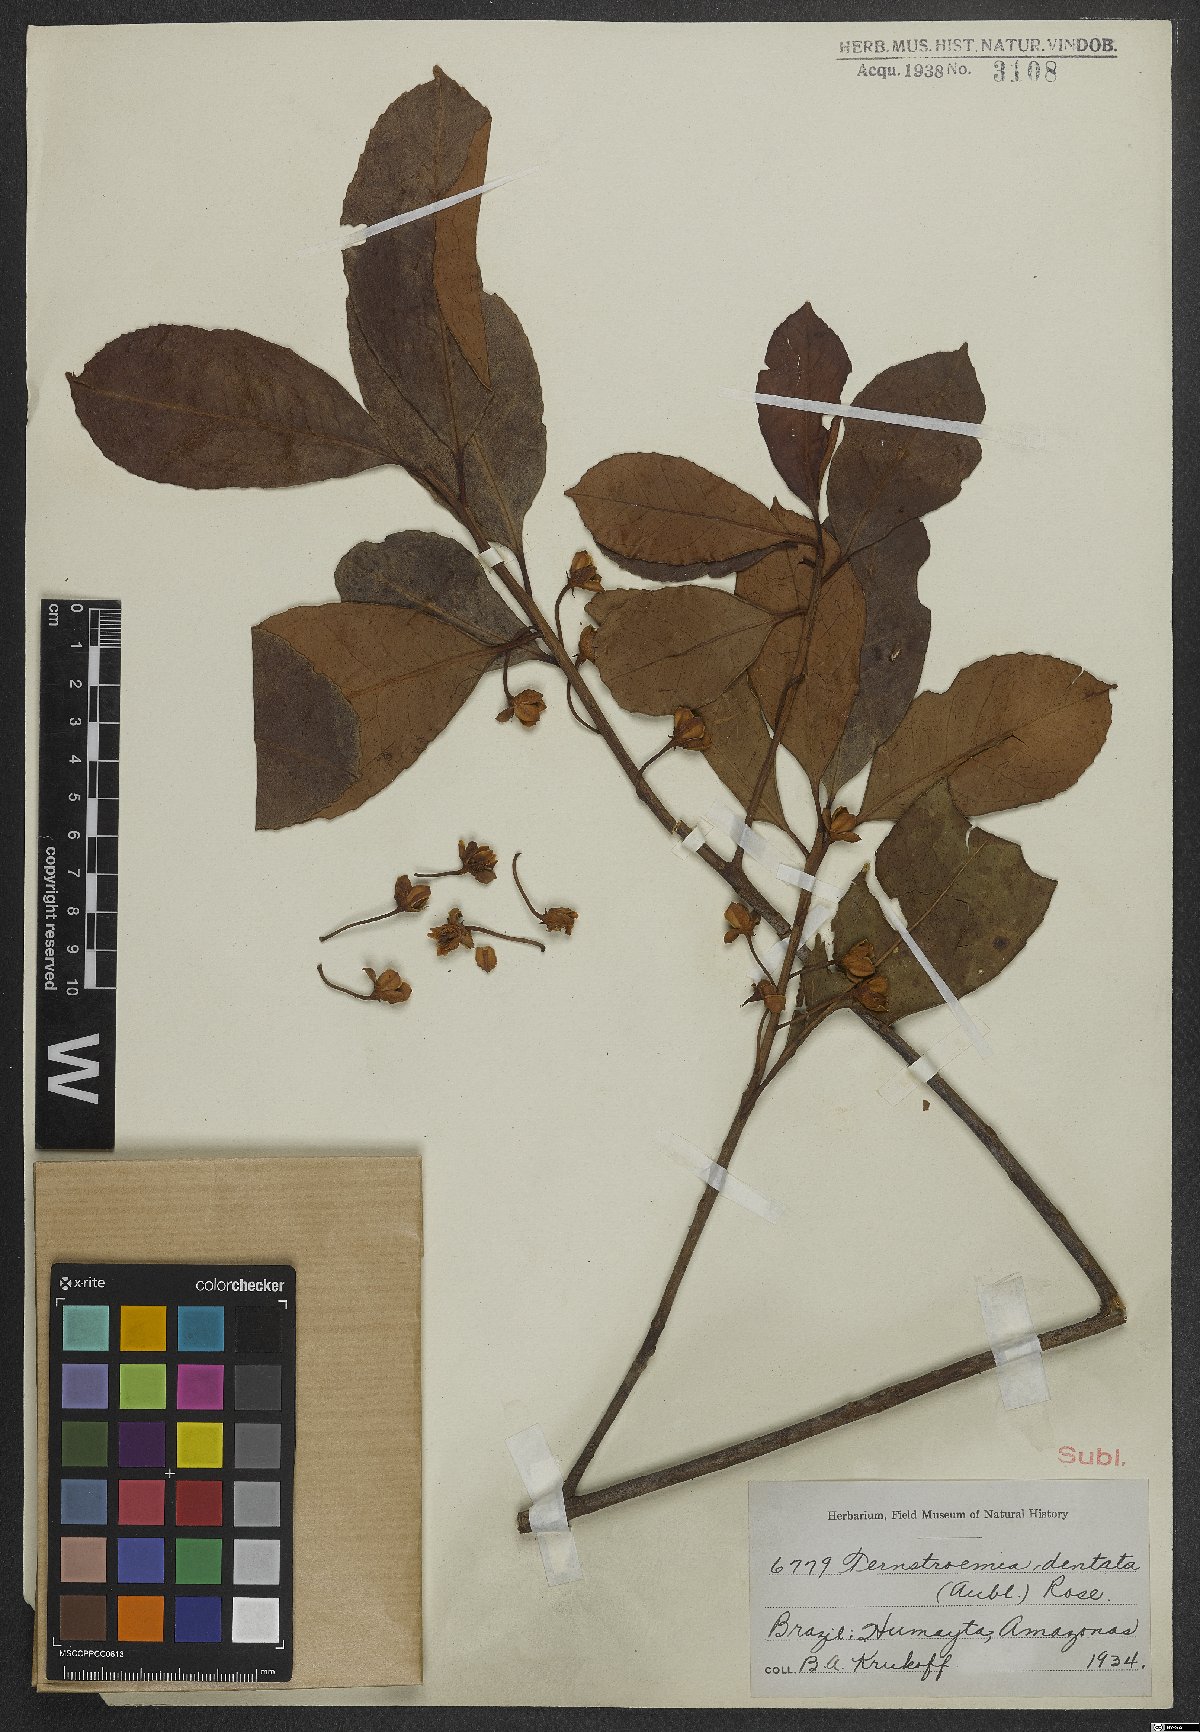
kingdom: Plantae
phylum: Tracheophyta
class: Magnoliopsida
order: Ericales
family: Pentaphylacaceae
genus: Ternstroemia
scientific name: Ternstroemia dentata
